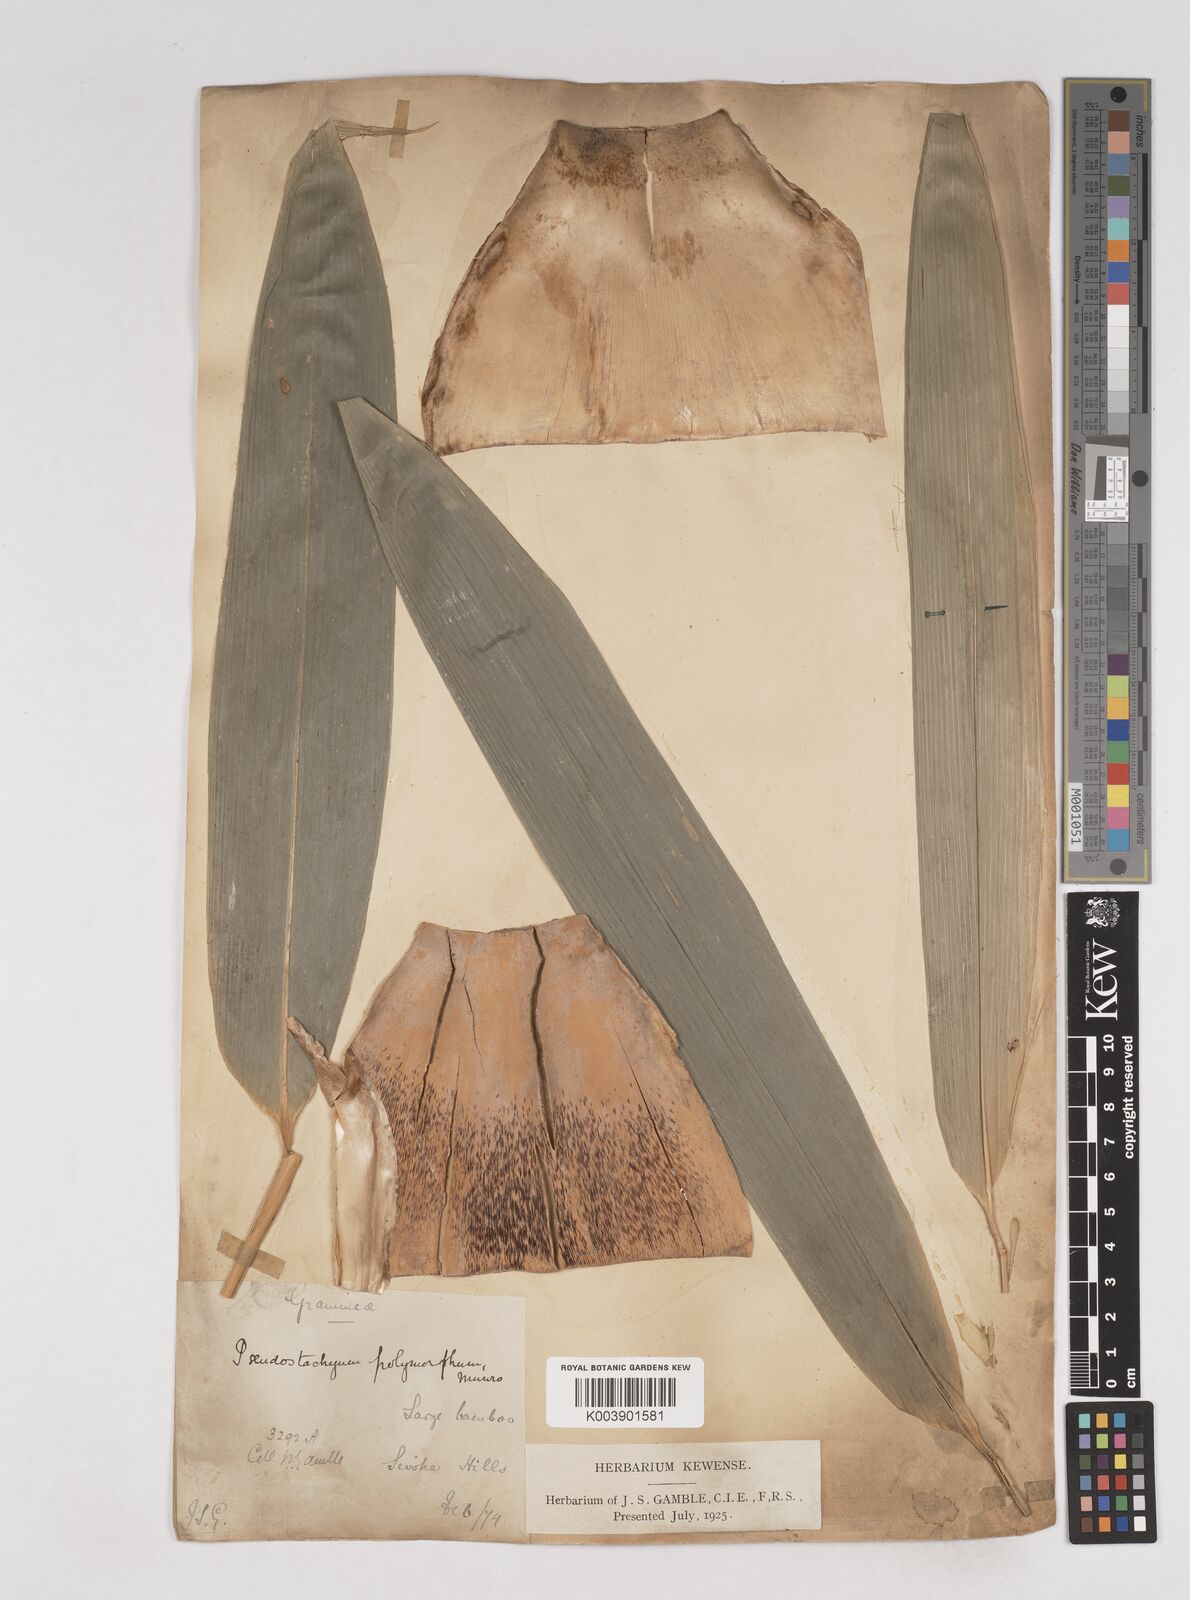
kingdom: Plantae
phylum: Tracheophyta
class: Liliopsida
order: Poales
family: Poaceae
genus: Pseudostachyum
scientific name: Pseudostachyum polymorphum
